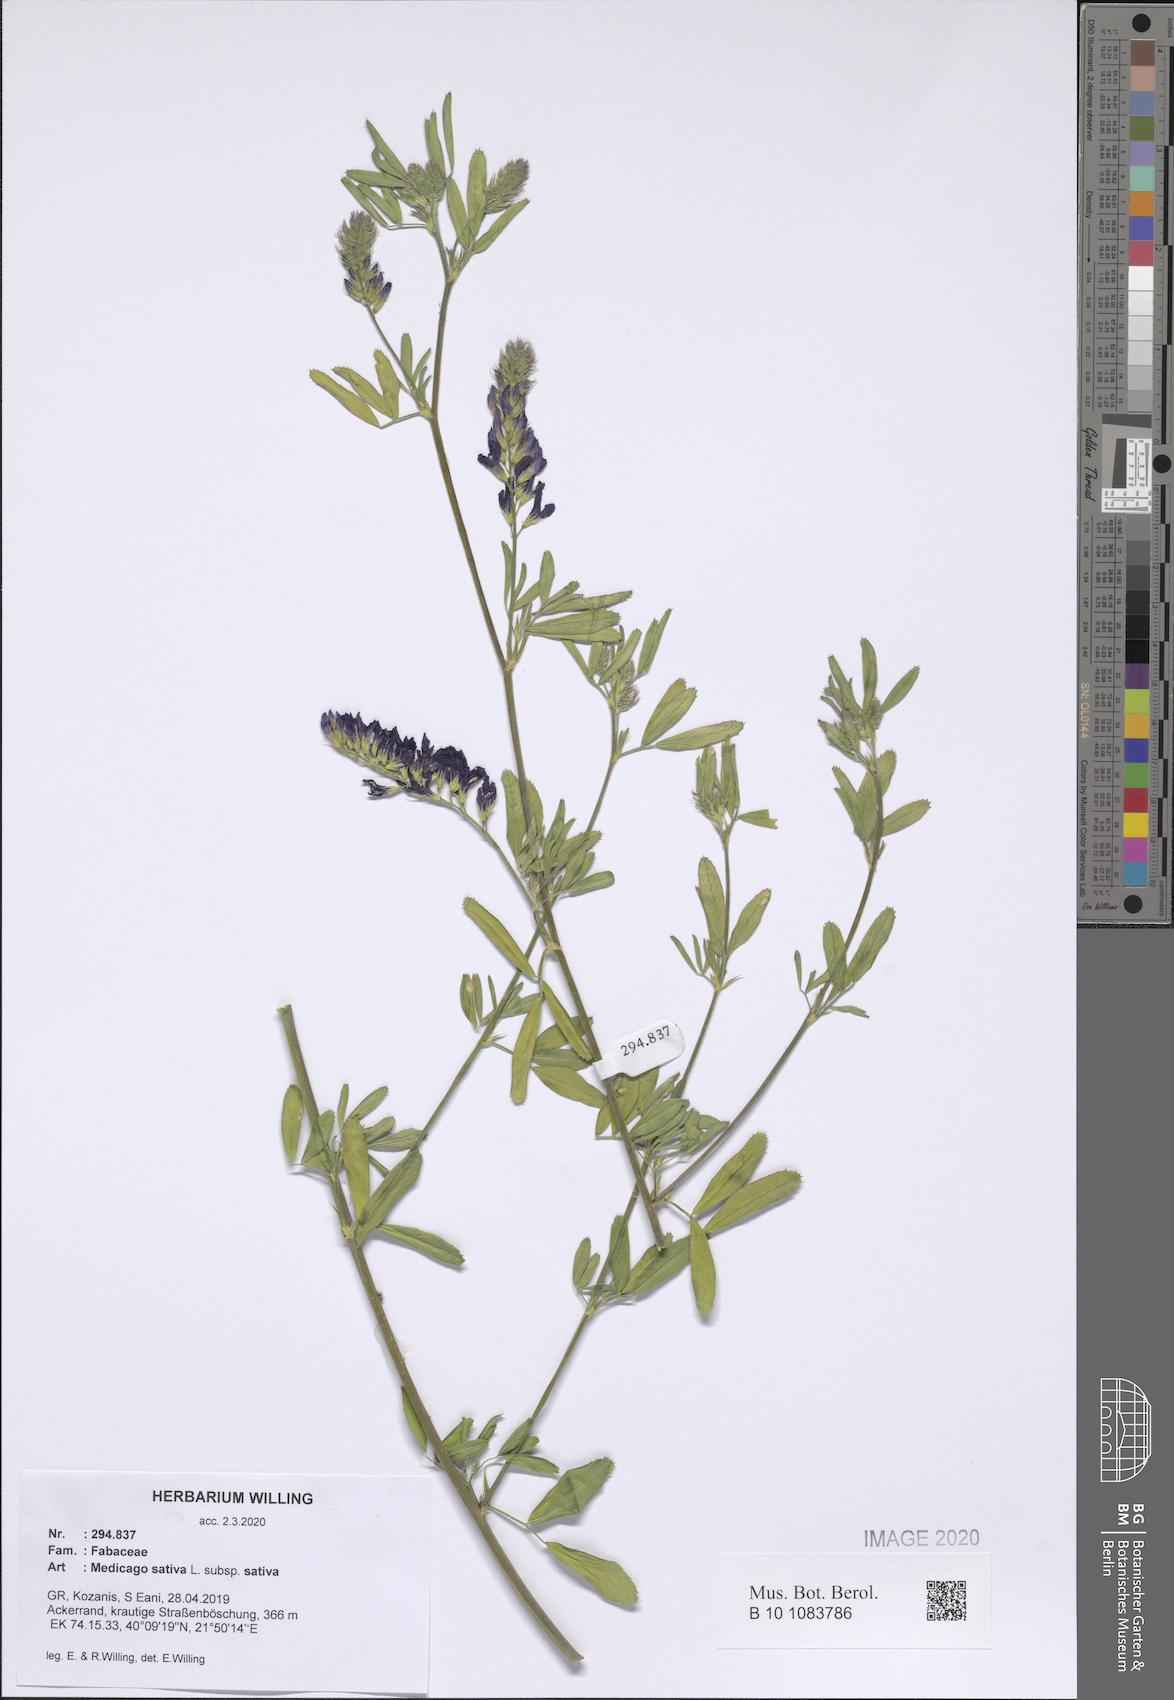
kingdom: Plantae
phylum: Tracheophyta
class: Magnoliopsida
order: Fabales
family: Fabaceae
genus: Medicago
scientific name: Medicago sativa
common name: Alfalfa
